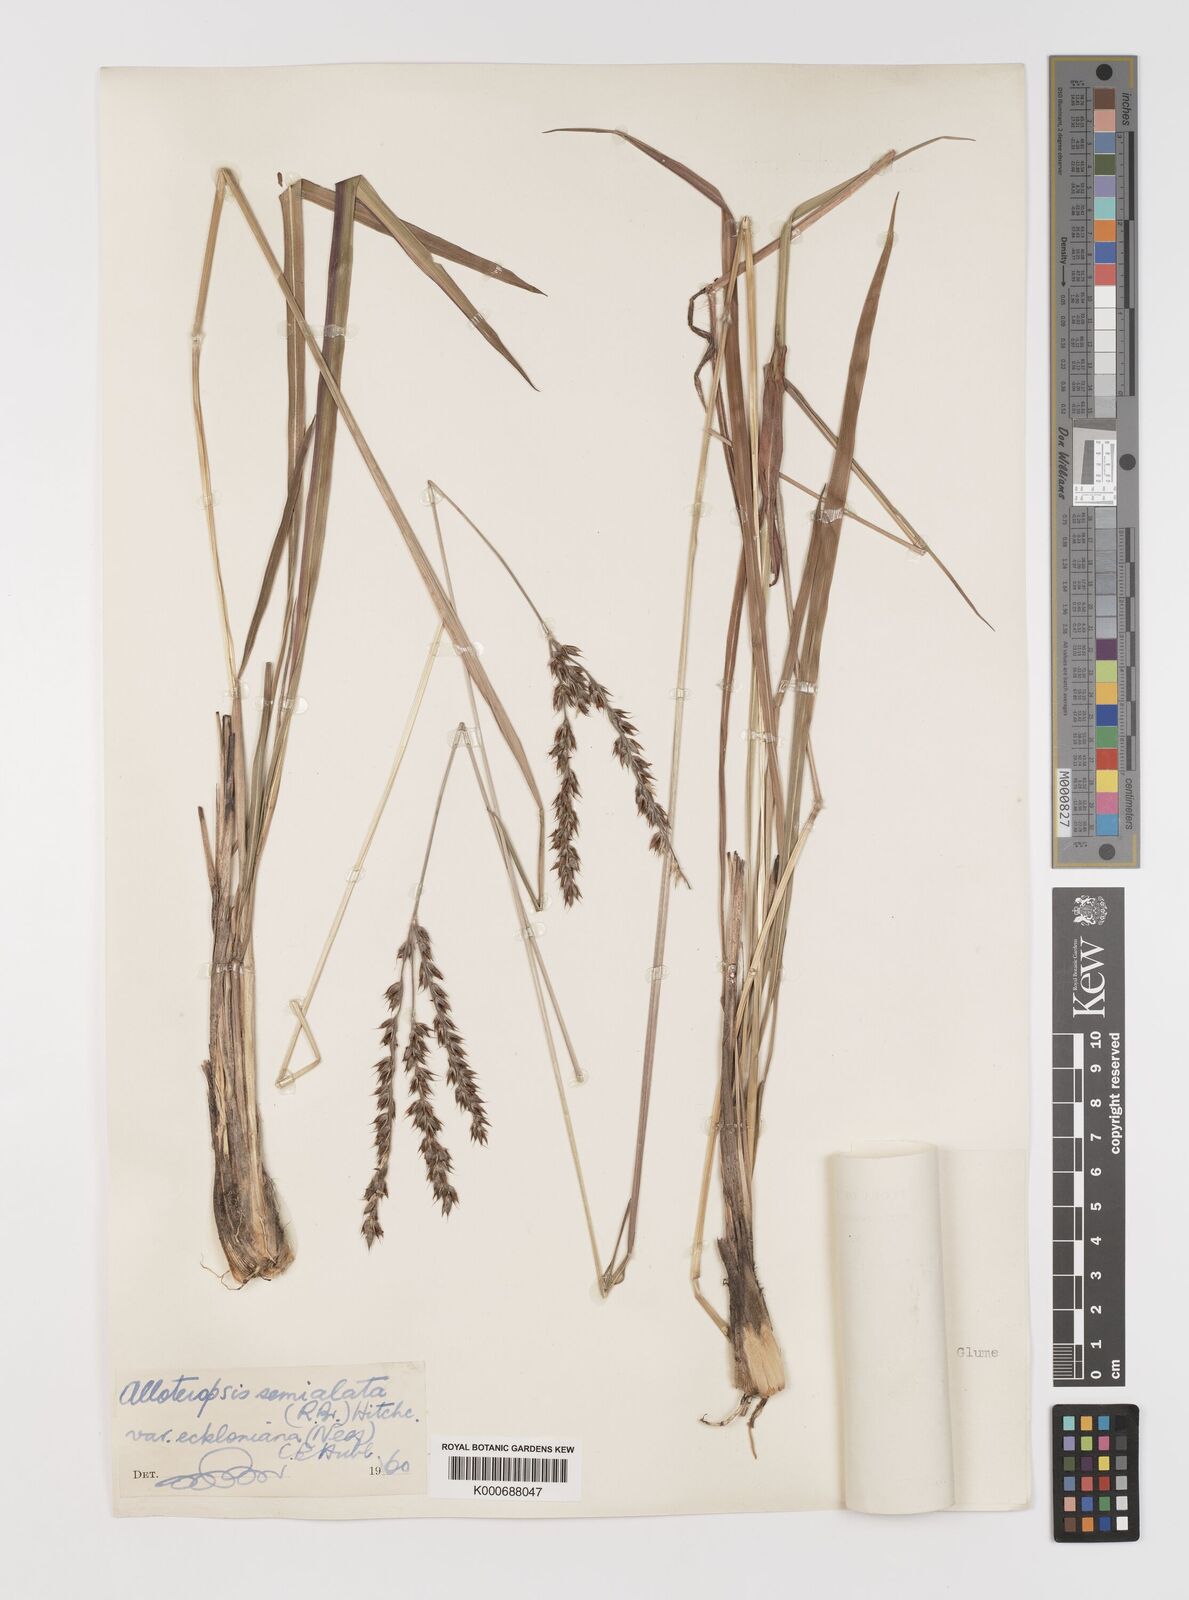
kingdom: Plantae
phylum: Tracheophyta
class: Liliopsida
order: Poales
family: Poaceae
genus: Alloteropsis
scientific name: Alloteropsis semialata
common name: Cockatoo grass
